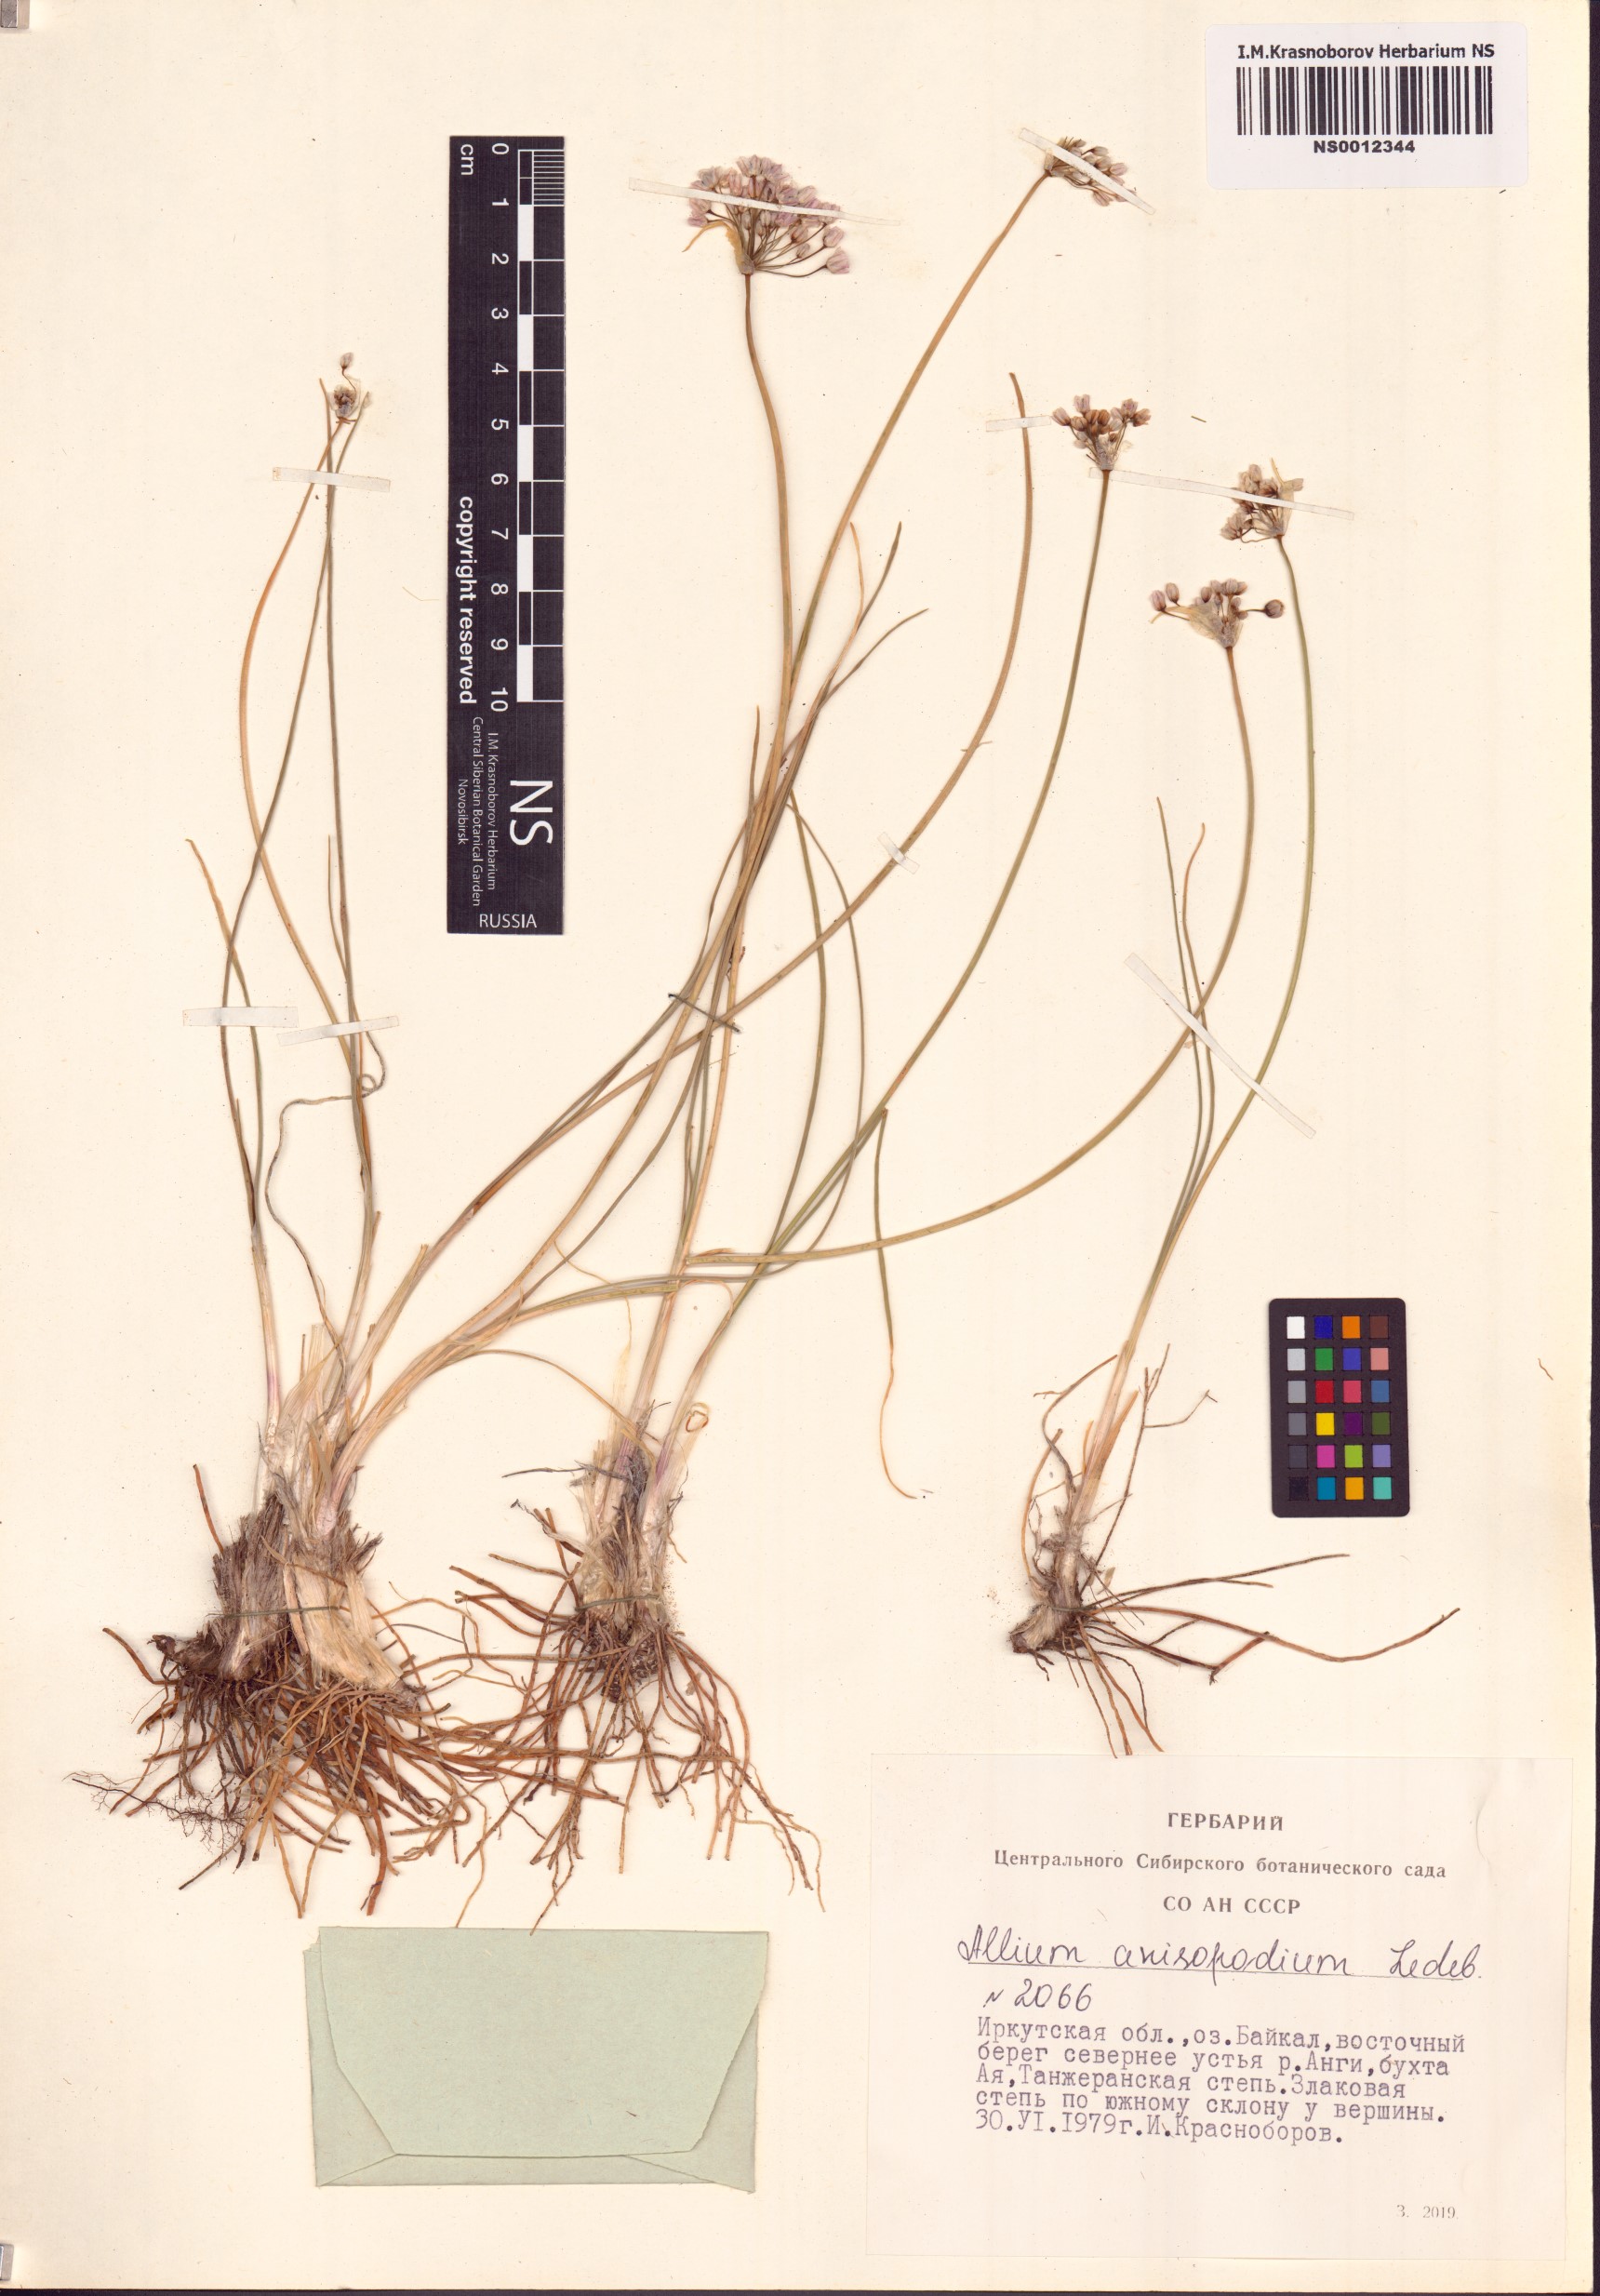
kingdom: Plantae
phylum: Tracheophyta
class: Liliopsida
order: Asparagales
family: Amaryllidaceae
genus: Allium
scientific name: Allium anisopodium
